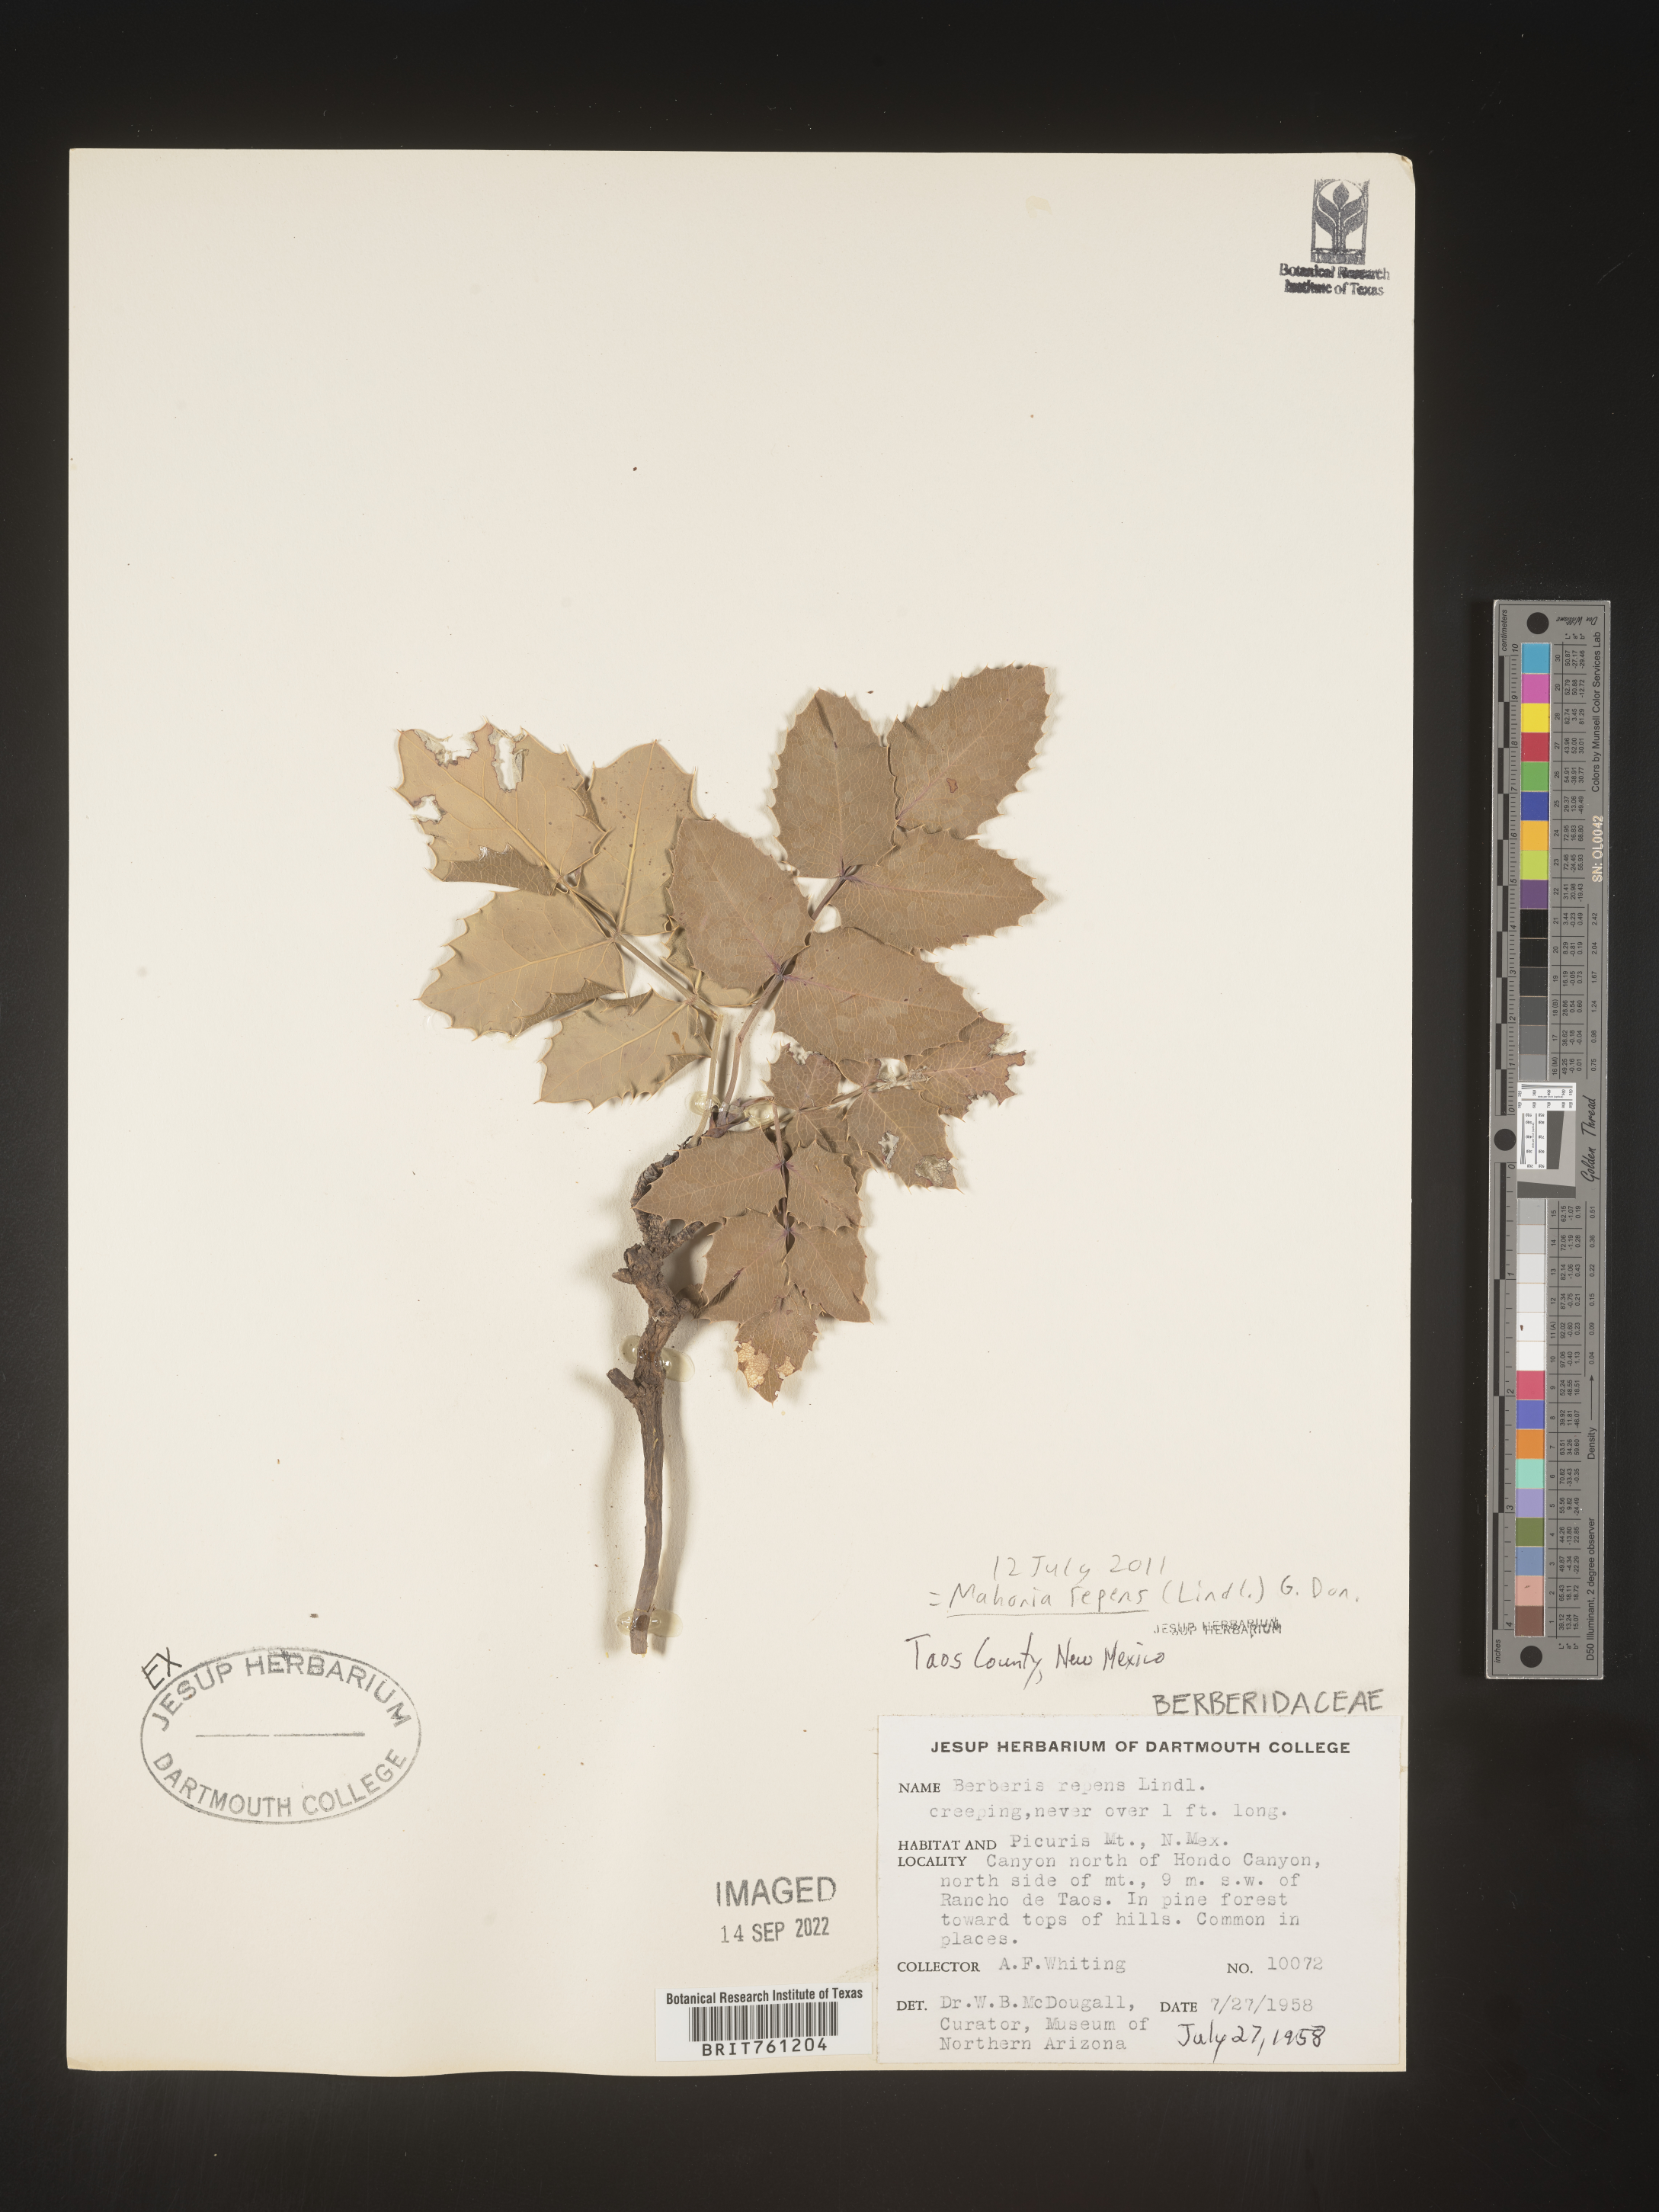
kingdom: Plantae
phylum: Tracheophyta
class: Magnoliopsida
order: Ranunculales
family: Berberidaceae
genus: Mahonia
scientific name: Mahonia repens
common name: Creeping oregon-grape
